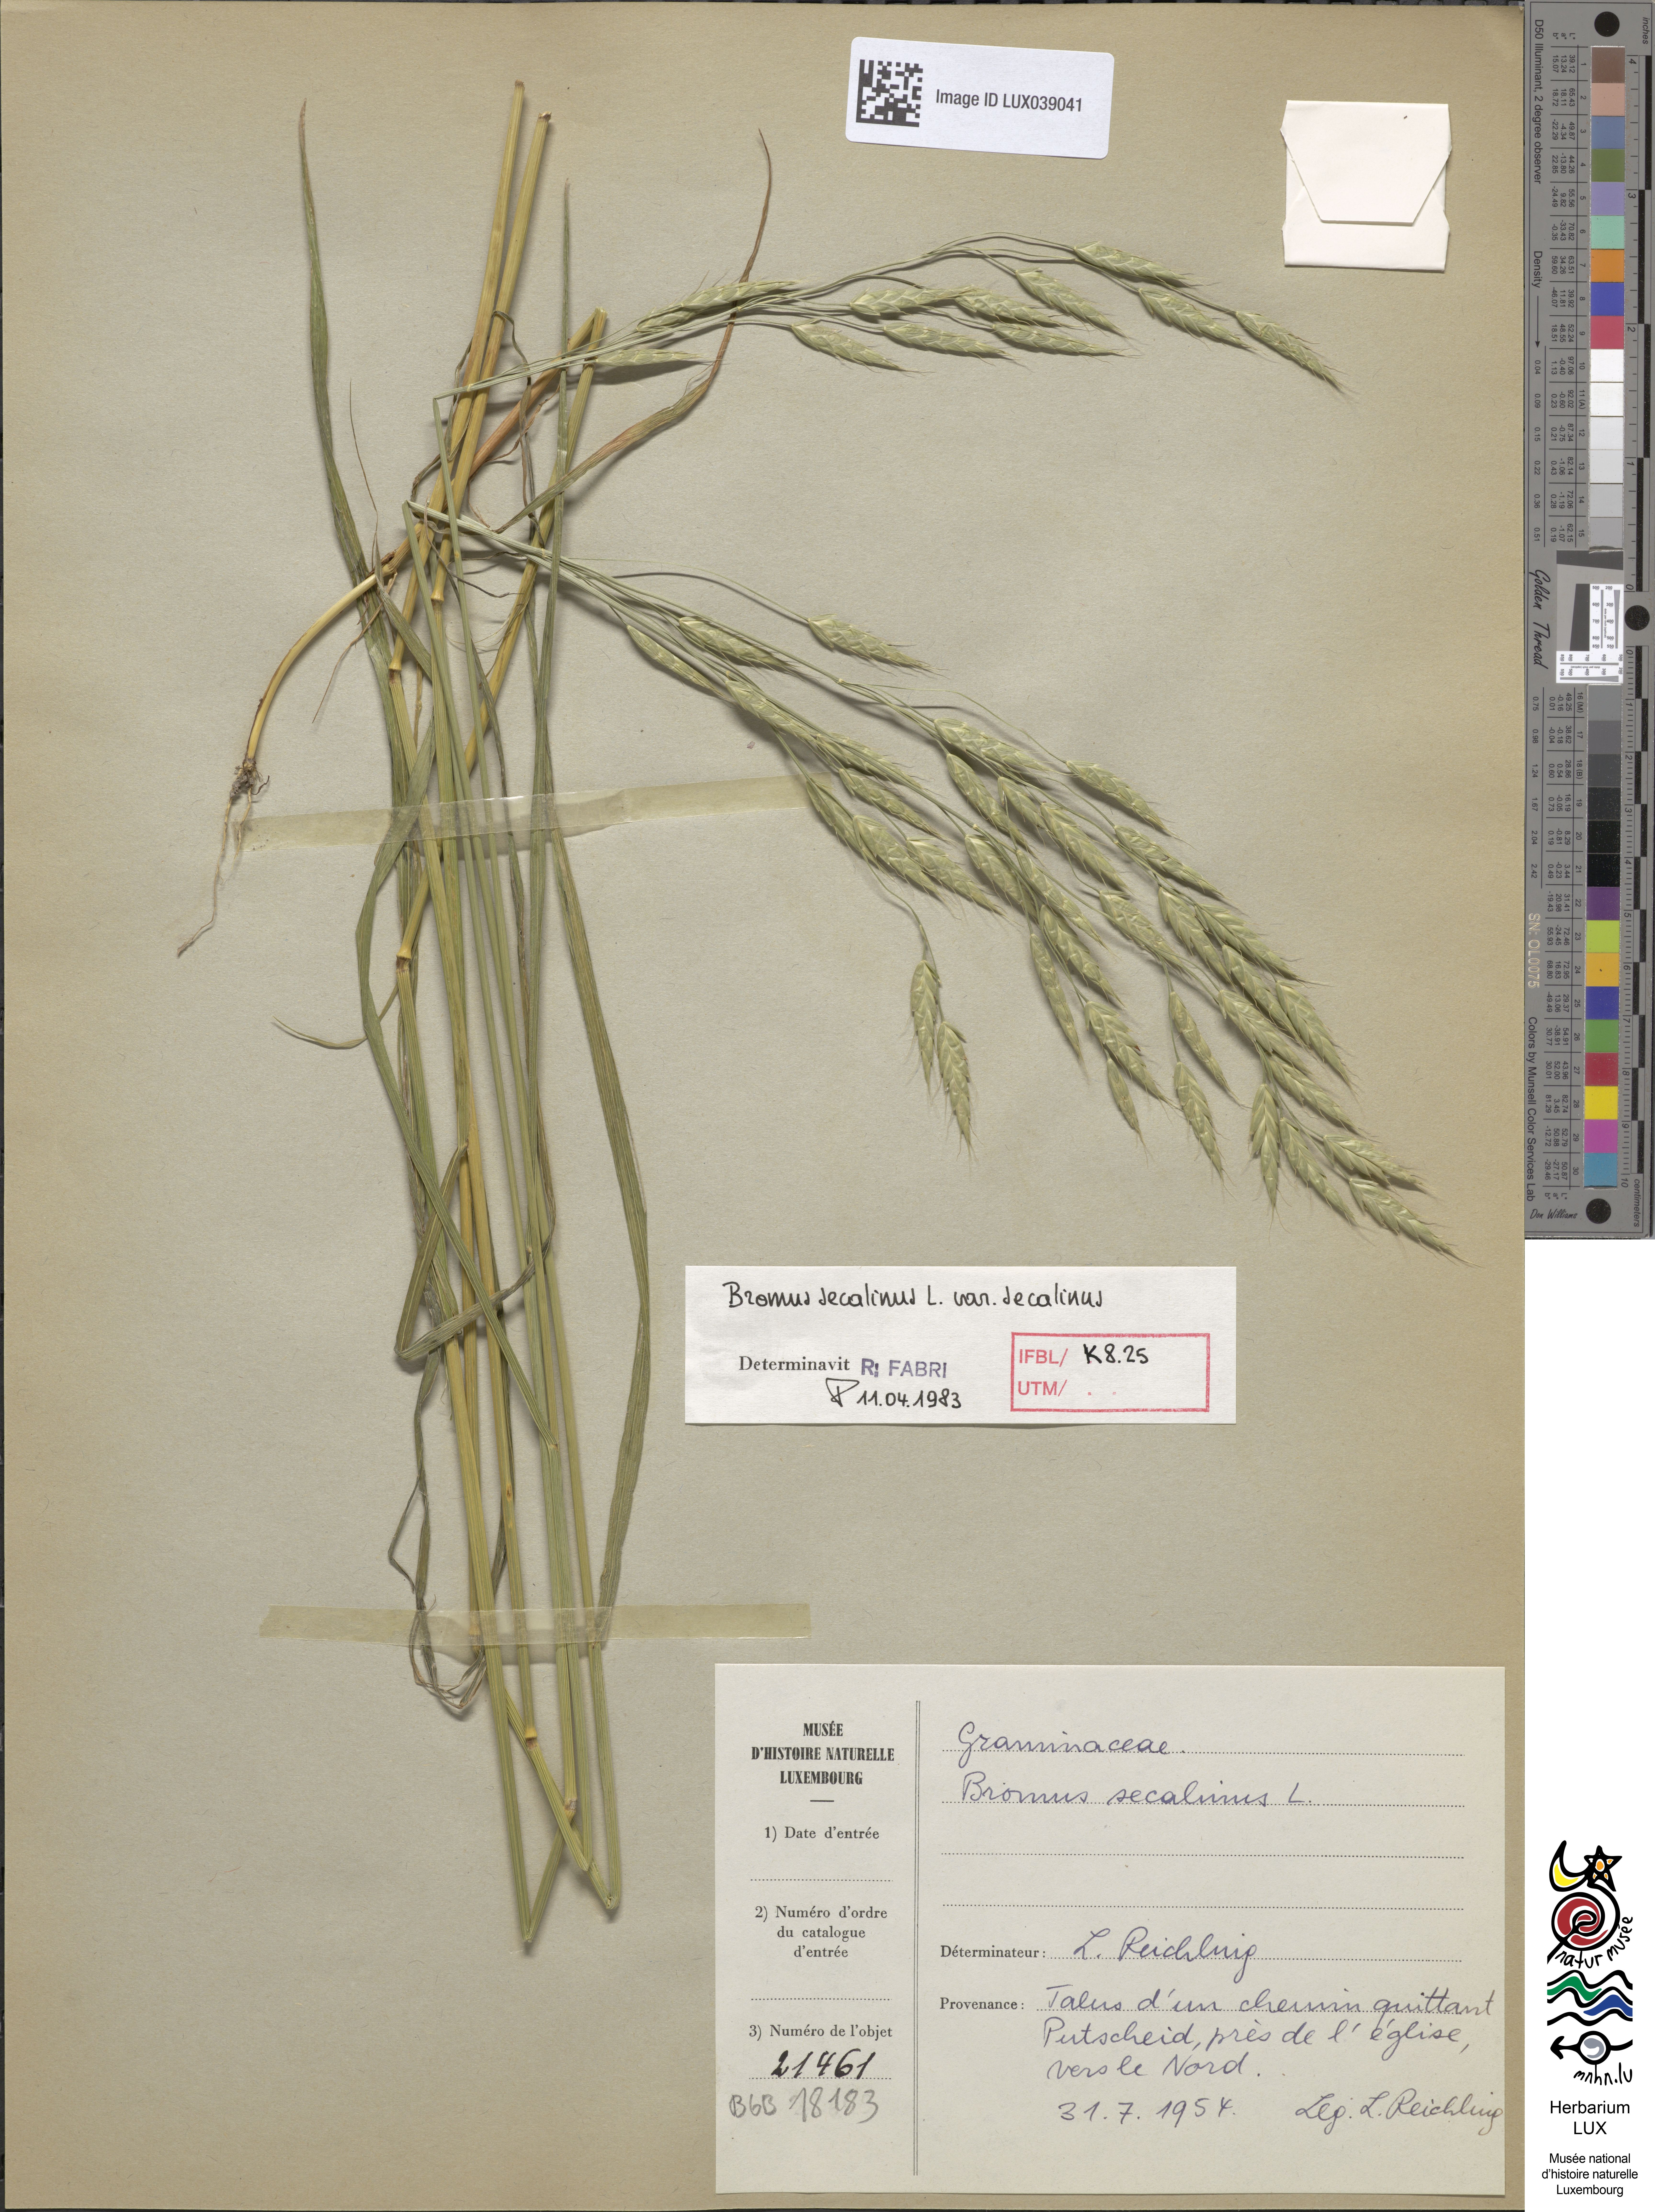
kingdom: Plantae
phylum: Tracheophyta
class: Liliopsida
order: Poales
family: Poaceae
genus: Bromus
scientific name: Bromus secalinus
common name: Rye brome
